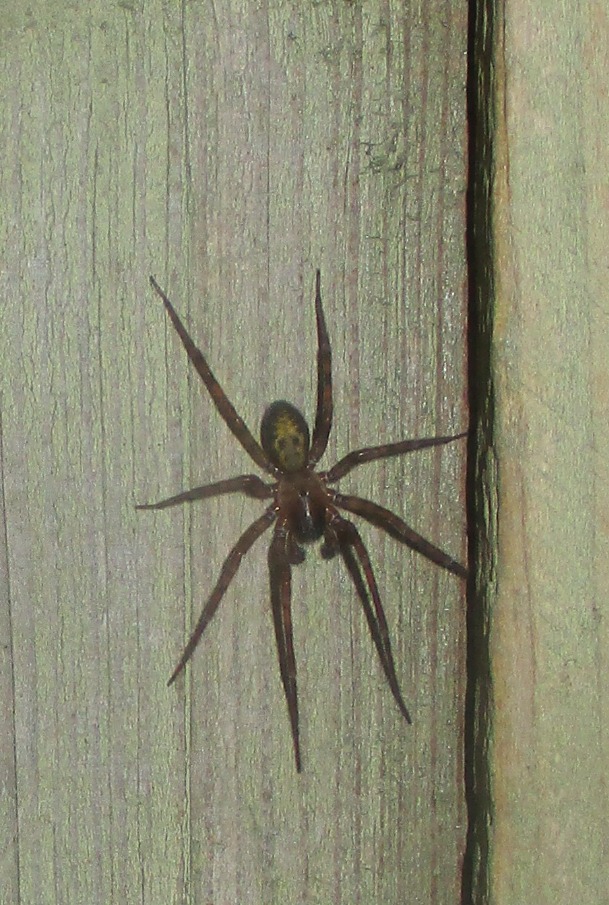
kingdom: Animalia
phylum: Arthropoda
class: Arachnida
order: Araneae
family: Amaurobiidae
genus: Amaurobius
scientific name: Amaurobius similis
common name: Huskartespinder
